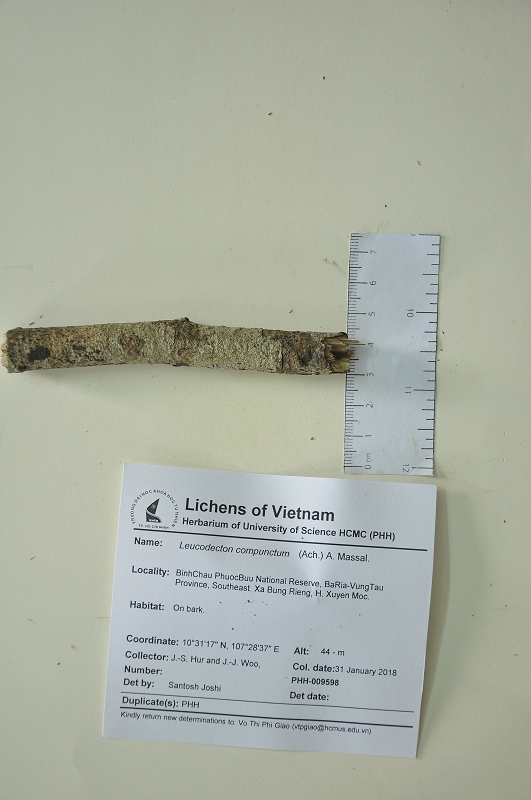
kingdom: Fungi
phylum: Ascomycota
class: Lecanoromycetes
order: Ostropales
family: Graphidaceae
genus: Leucodecton
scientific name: Leucodecton compunctum
